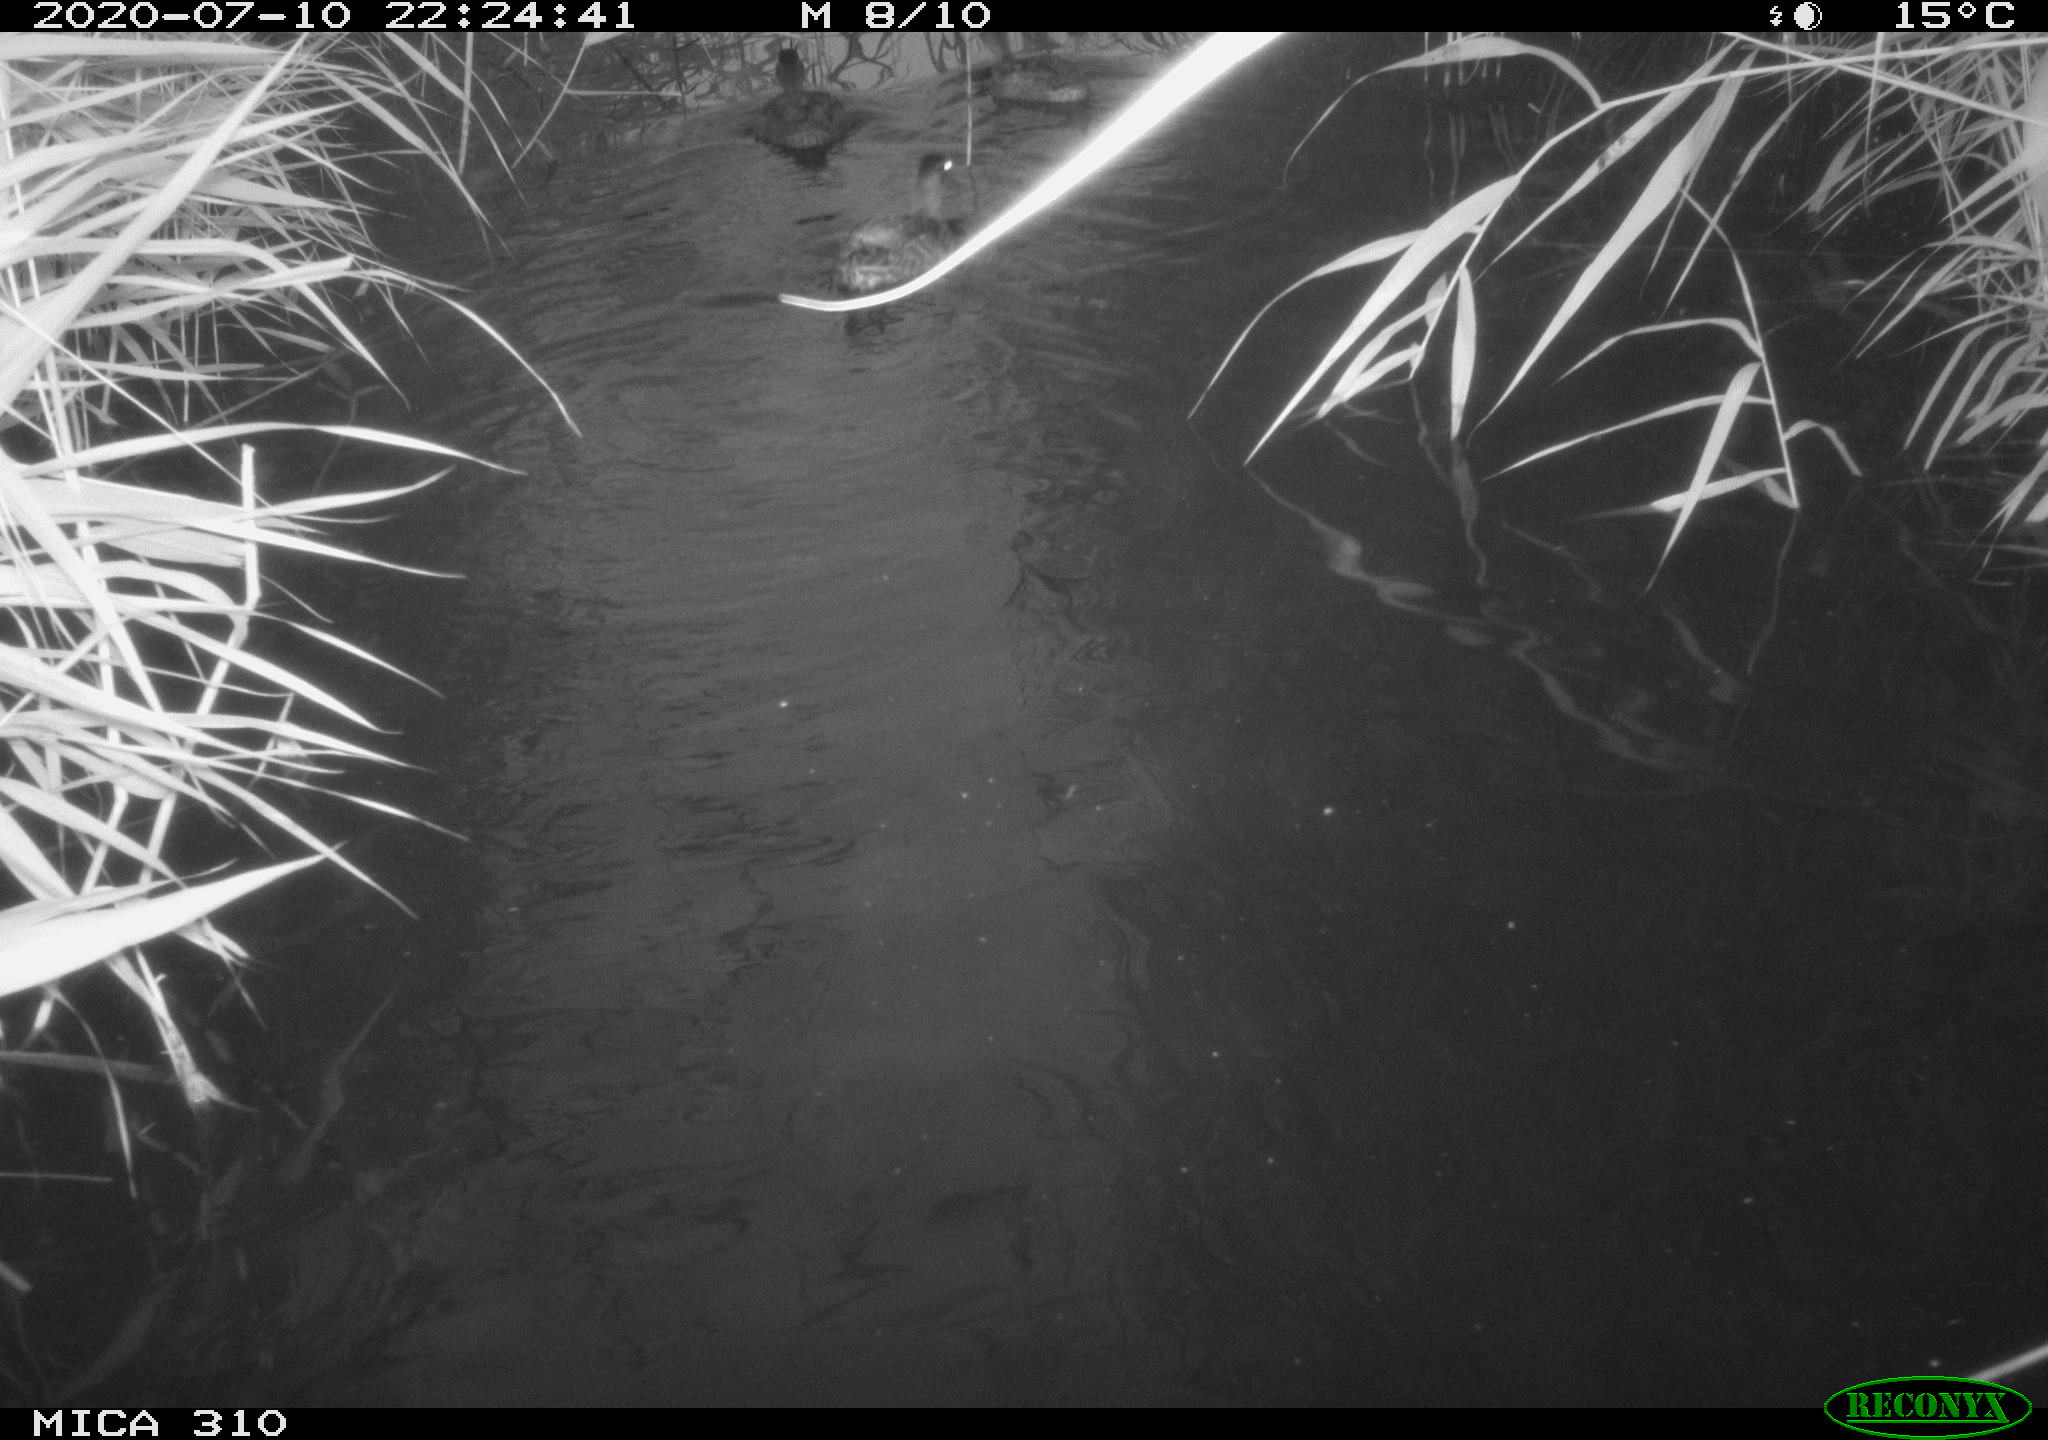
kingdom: Animalia
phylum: Chordata
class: Aves
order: Anseriformes
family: Anatidae
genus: Anas
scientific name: Anas platyrhynchos
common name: Mallard
